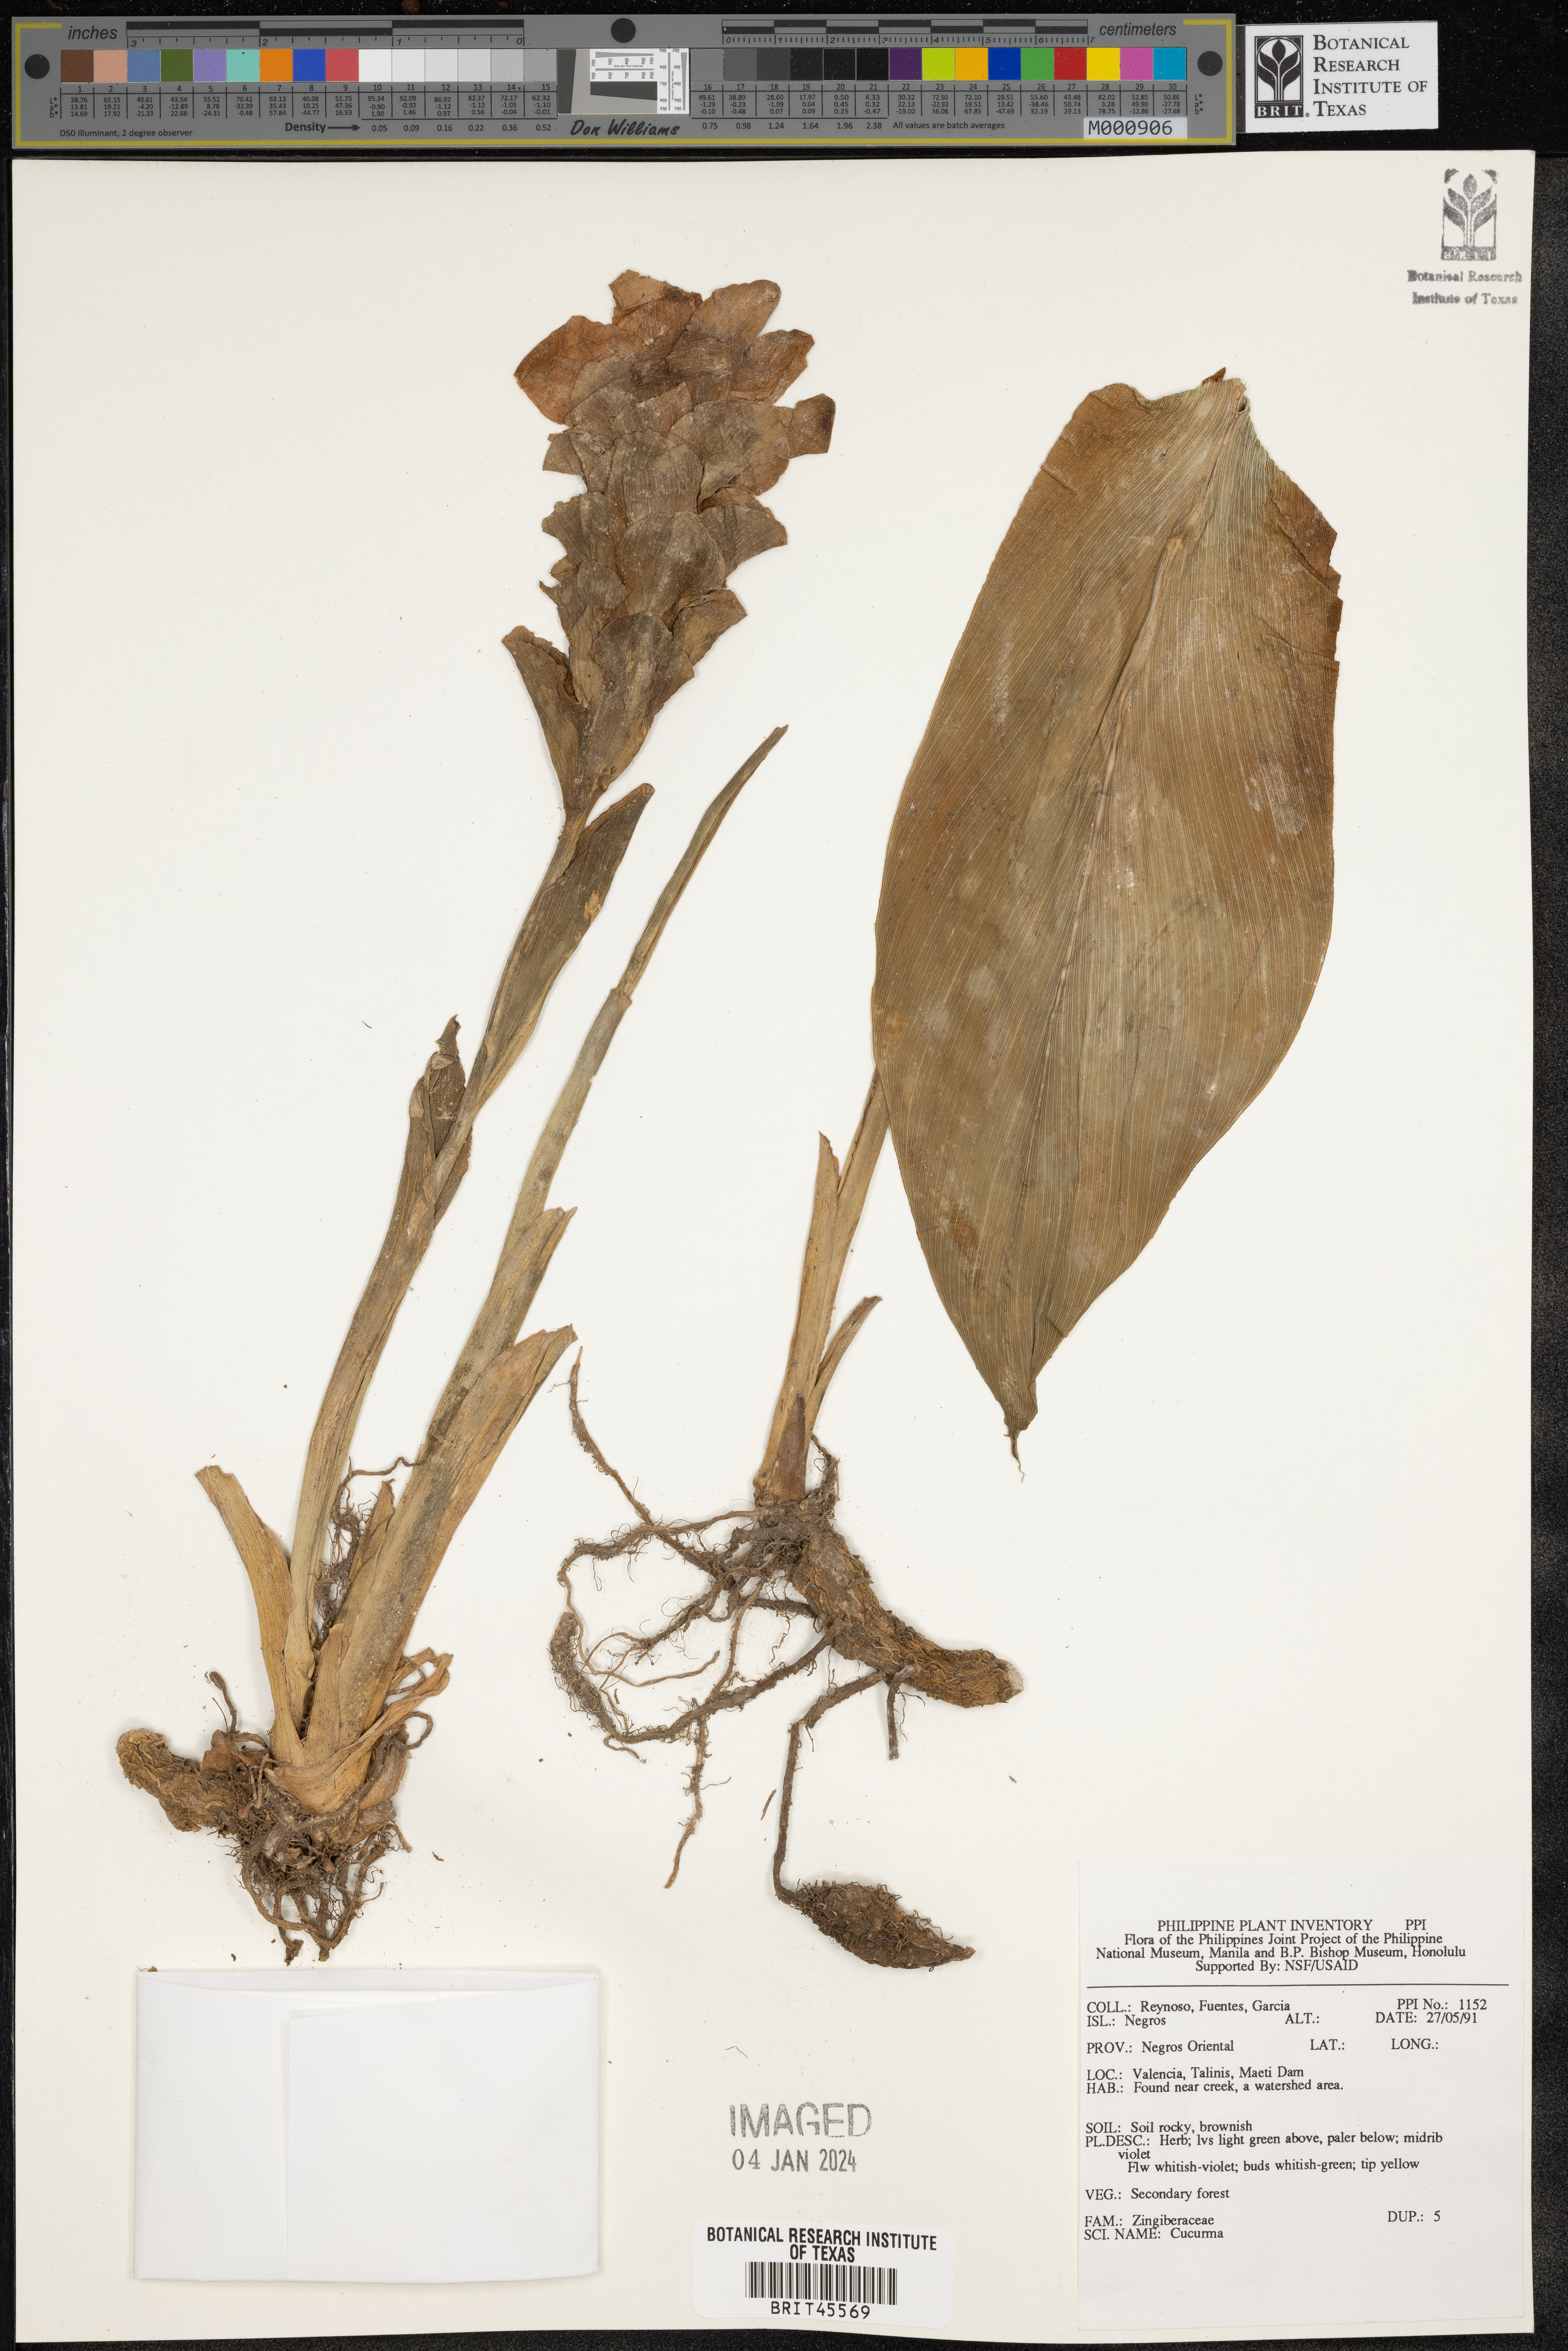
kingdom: Plantae
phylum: Tracheophyta
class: Liliopsida
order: Zingiberales
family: Zingiberaceae
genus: Curcuma
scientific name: Curcuma
